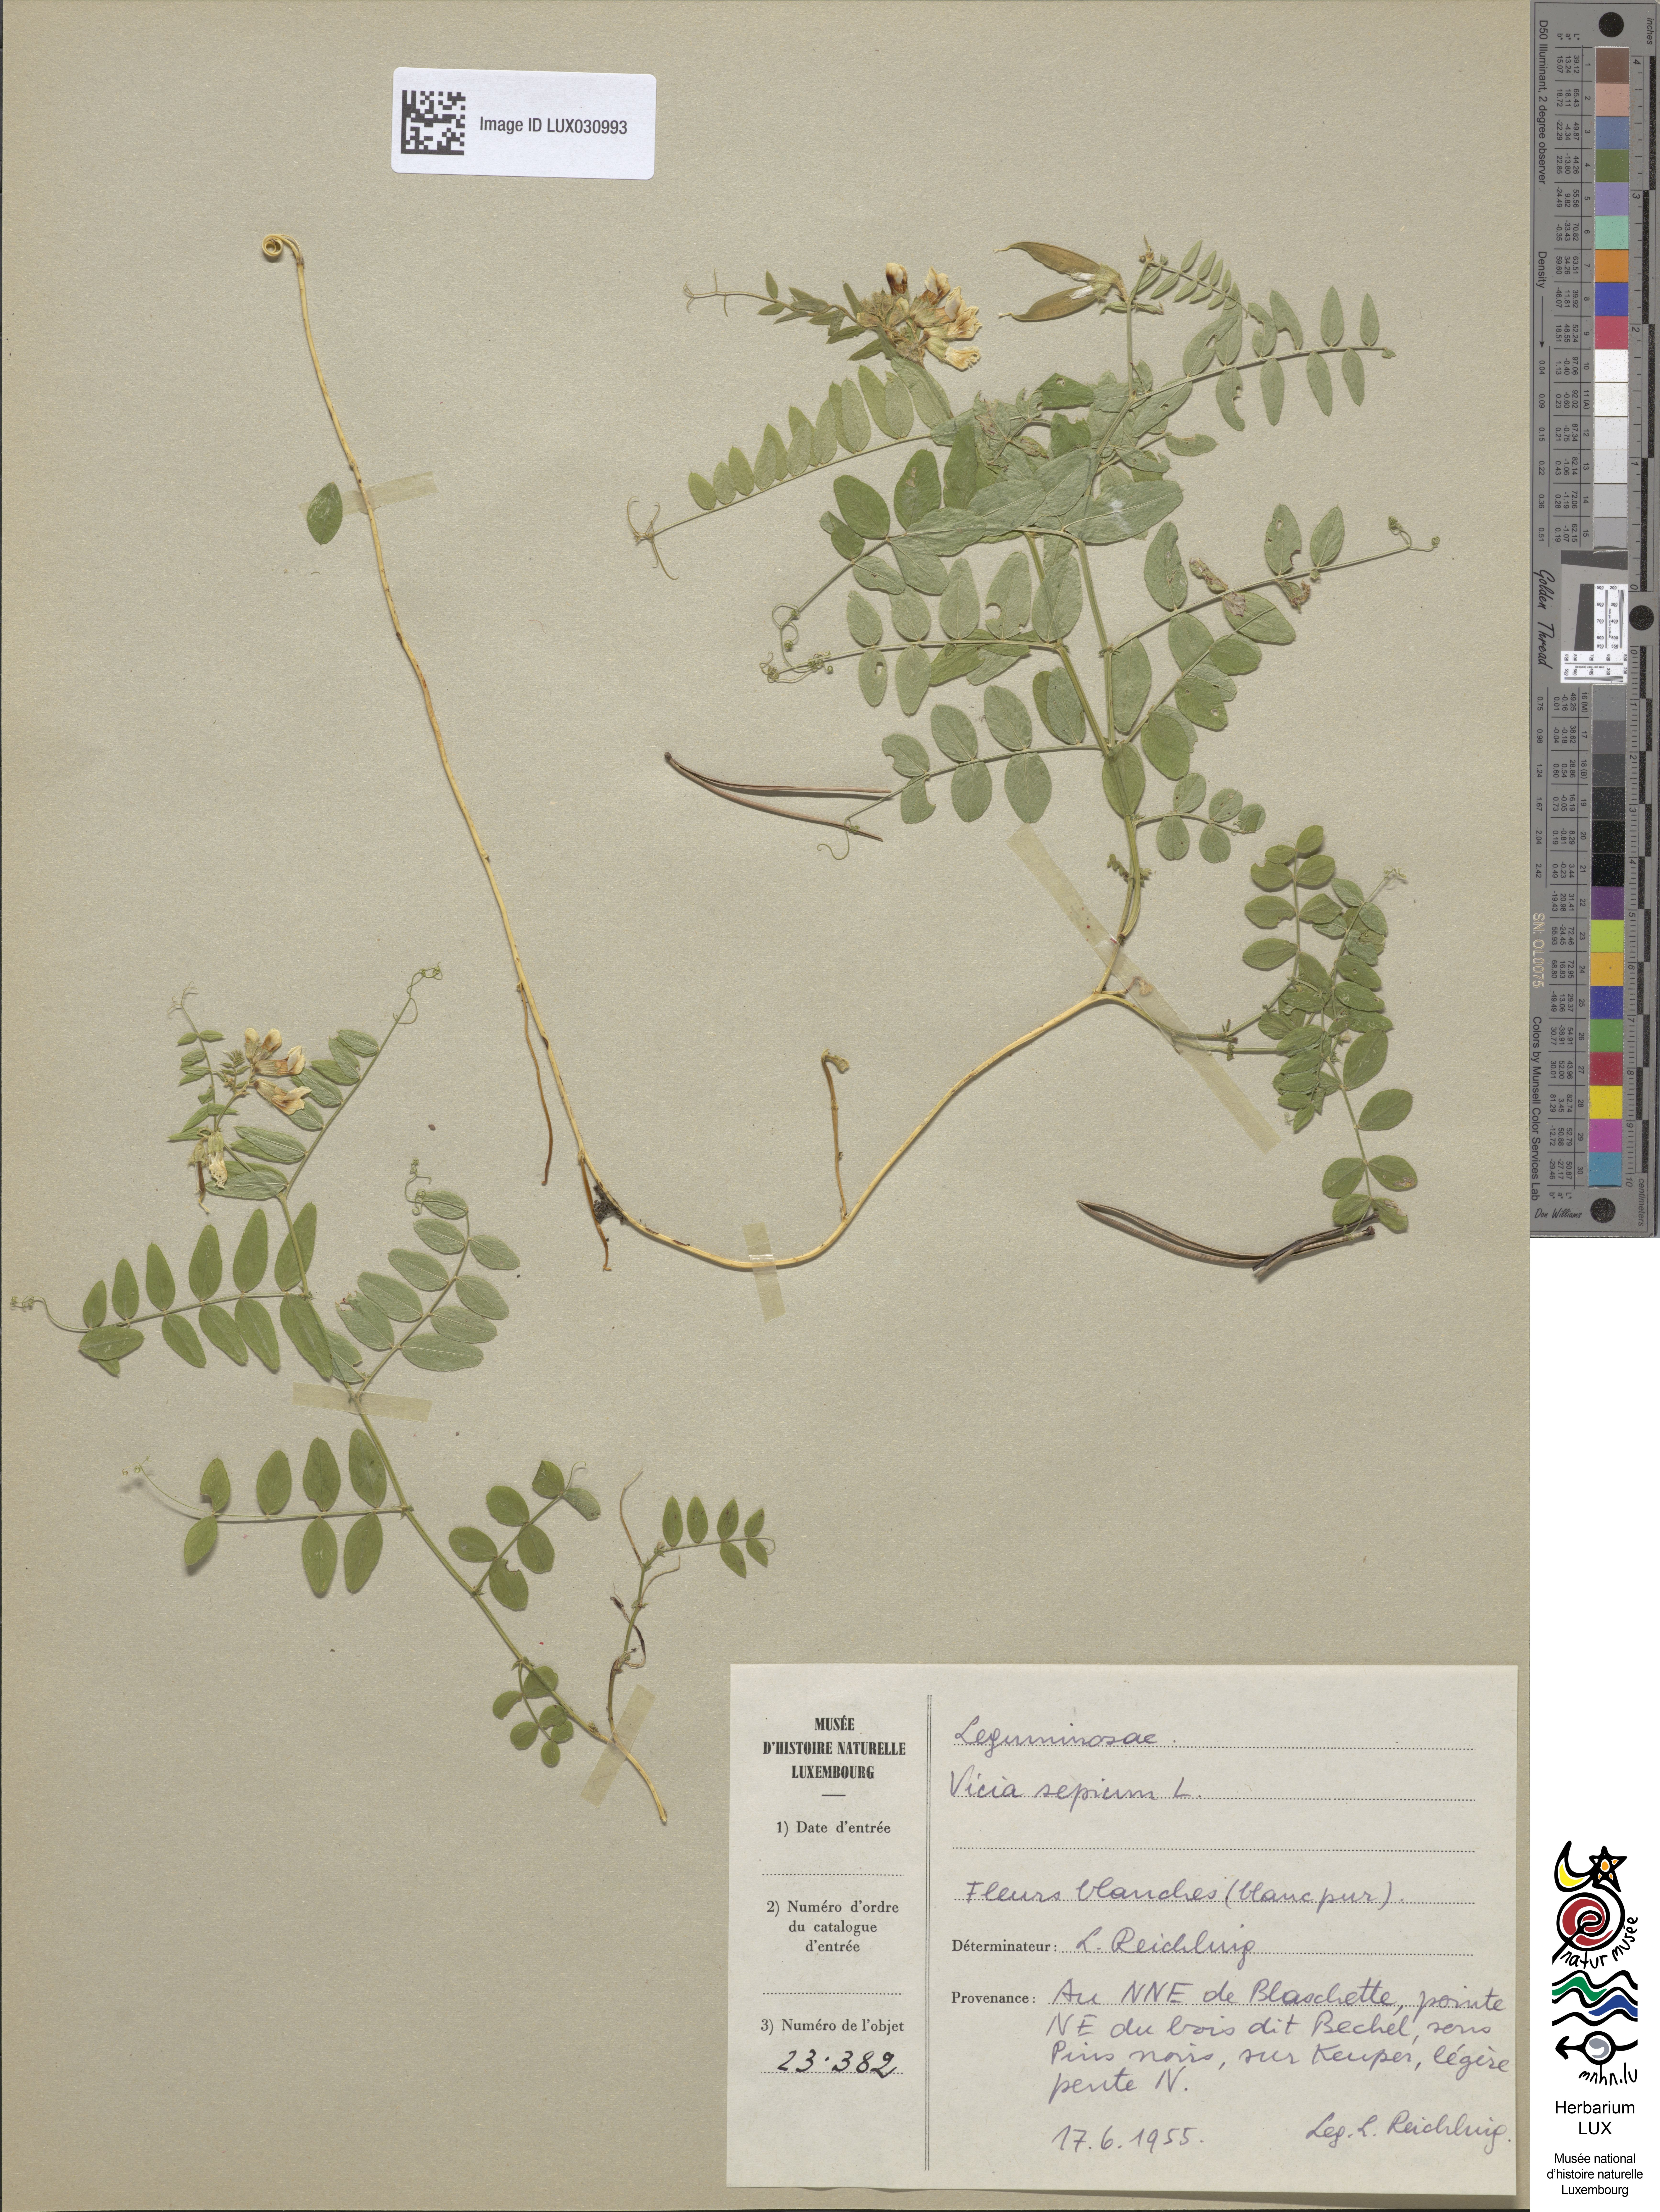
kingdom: Plantae
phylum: Tracheophyta
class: Magnoliopsida
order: Fabales
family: Fabaceae
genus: Vicia
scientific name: Vicia sepium
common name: Bush vetch
